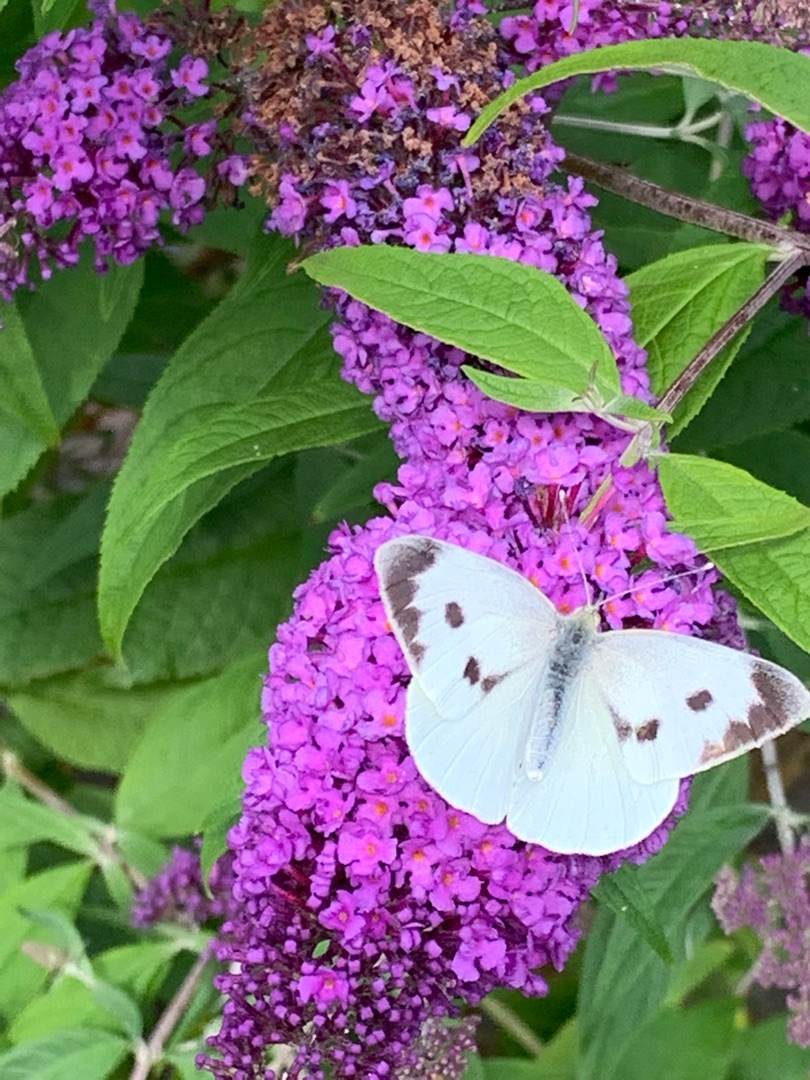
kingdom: Animalia
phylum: Arthropoda
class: Insecta
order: Lepidoptera
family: Pieridae
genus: Pieris
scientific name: Pieris brassicae
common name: Stor kålsommerfugl
